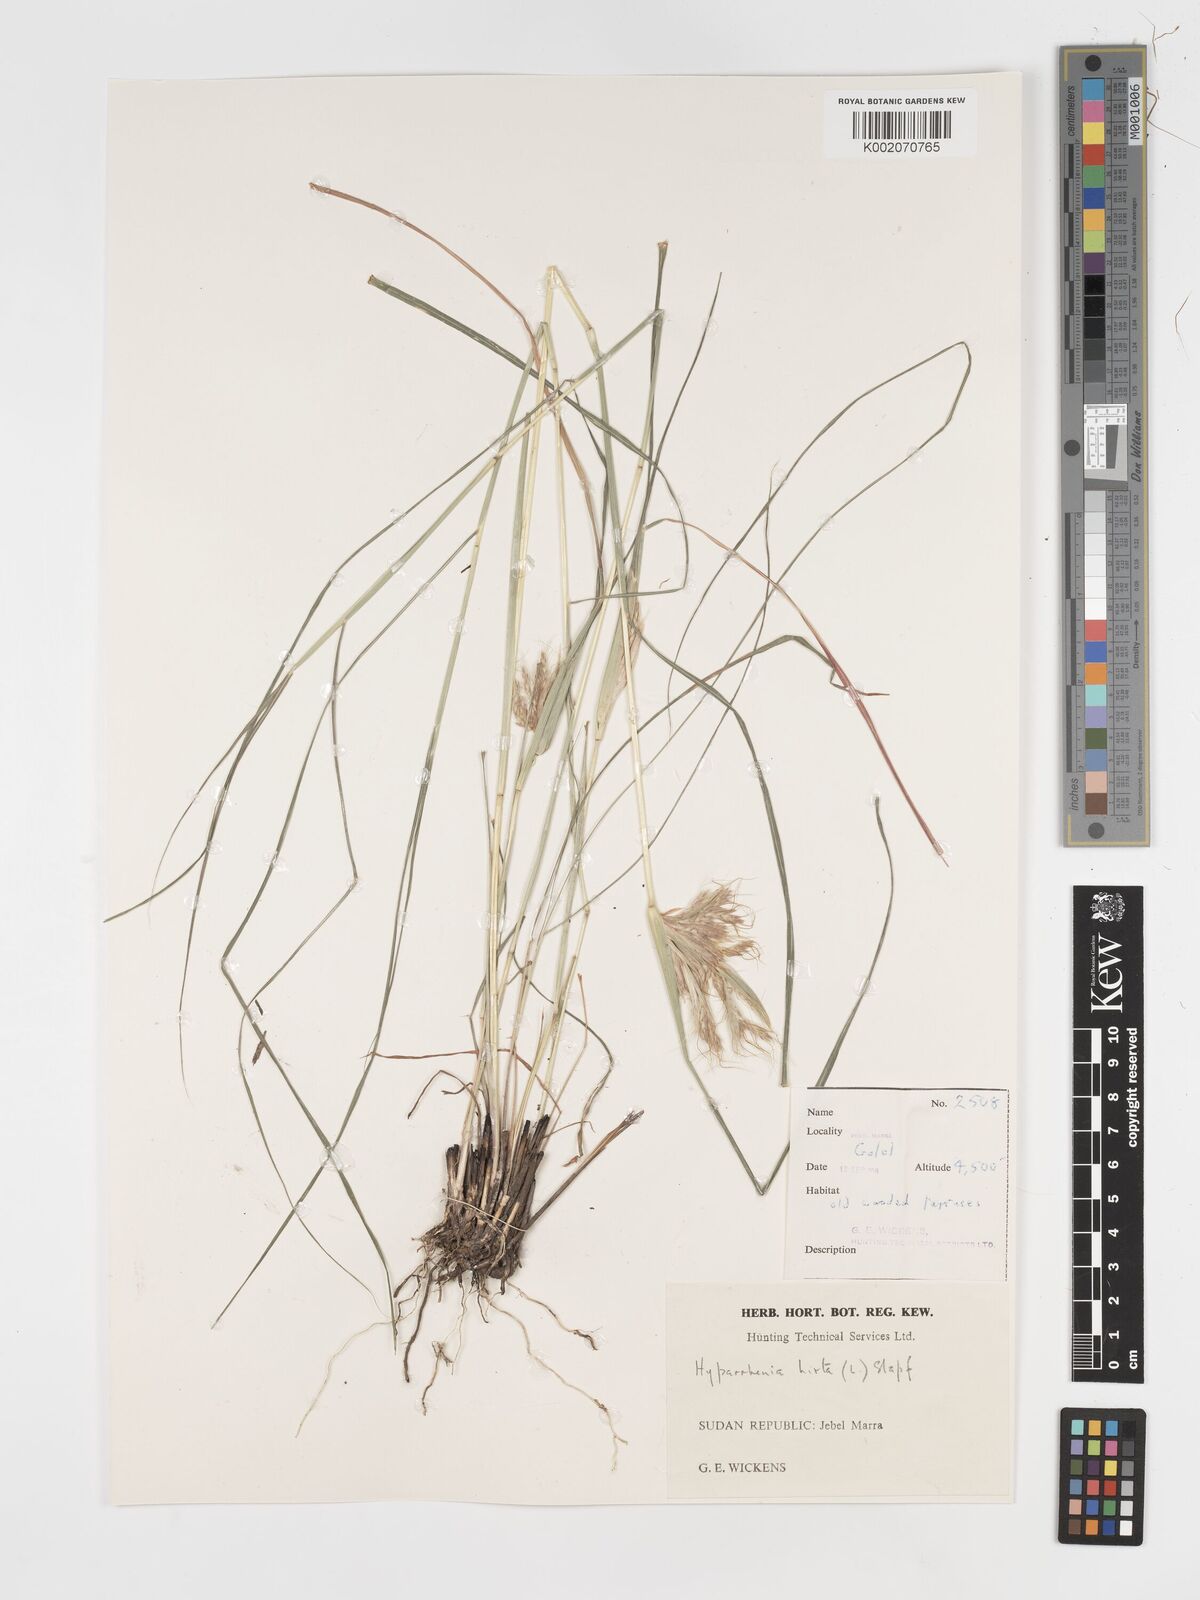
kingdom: Plantae
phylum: Tracheophyta
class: Liliopsida
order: Poales
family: Poaceae
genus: Hyparrhenia
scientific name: Hyparrhenia hirta
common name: Thatching grass
